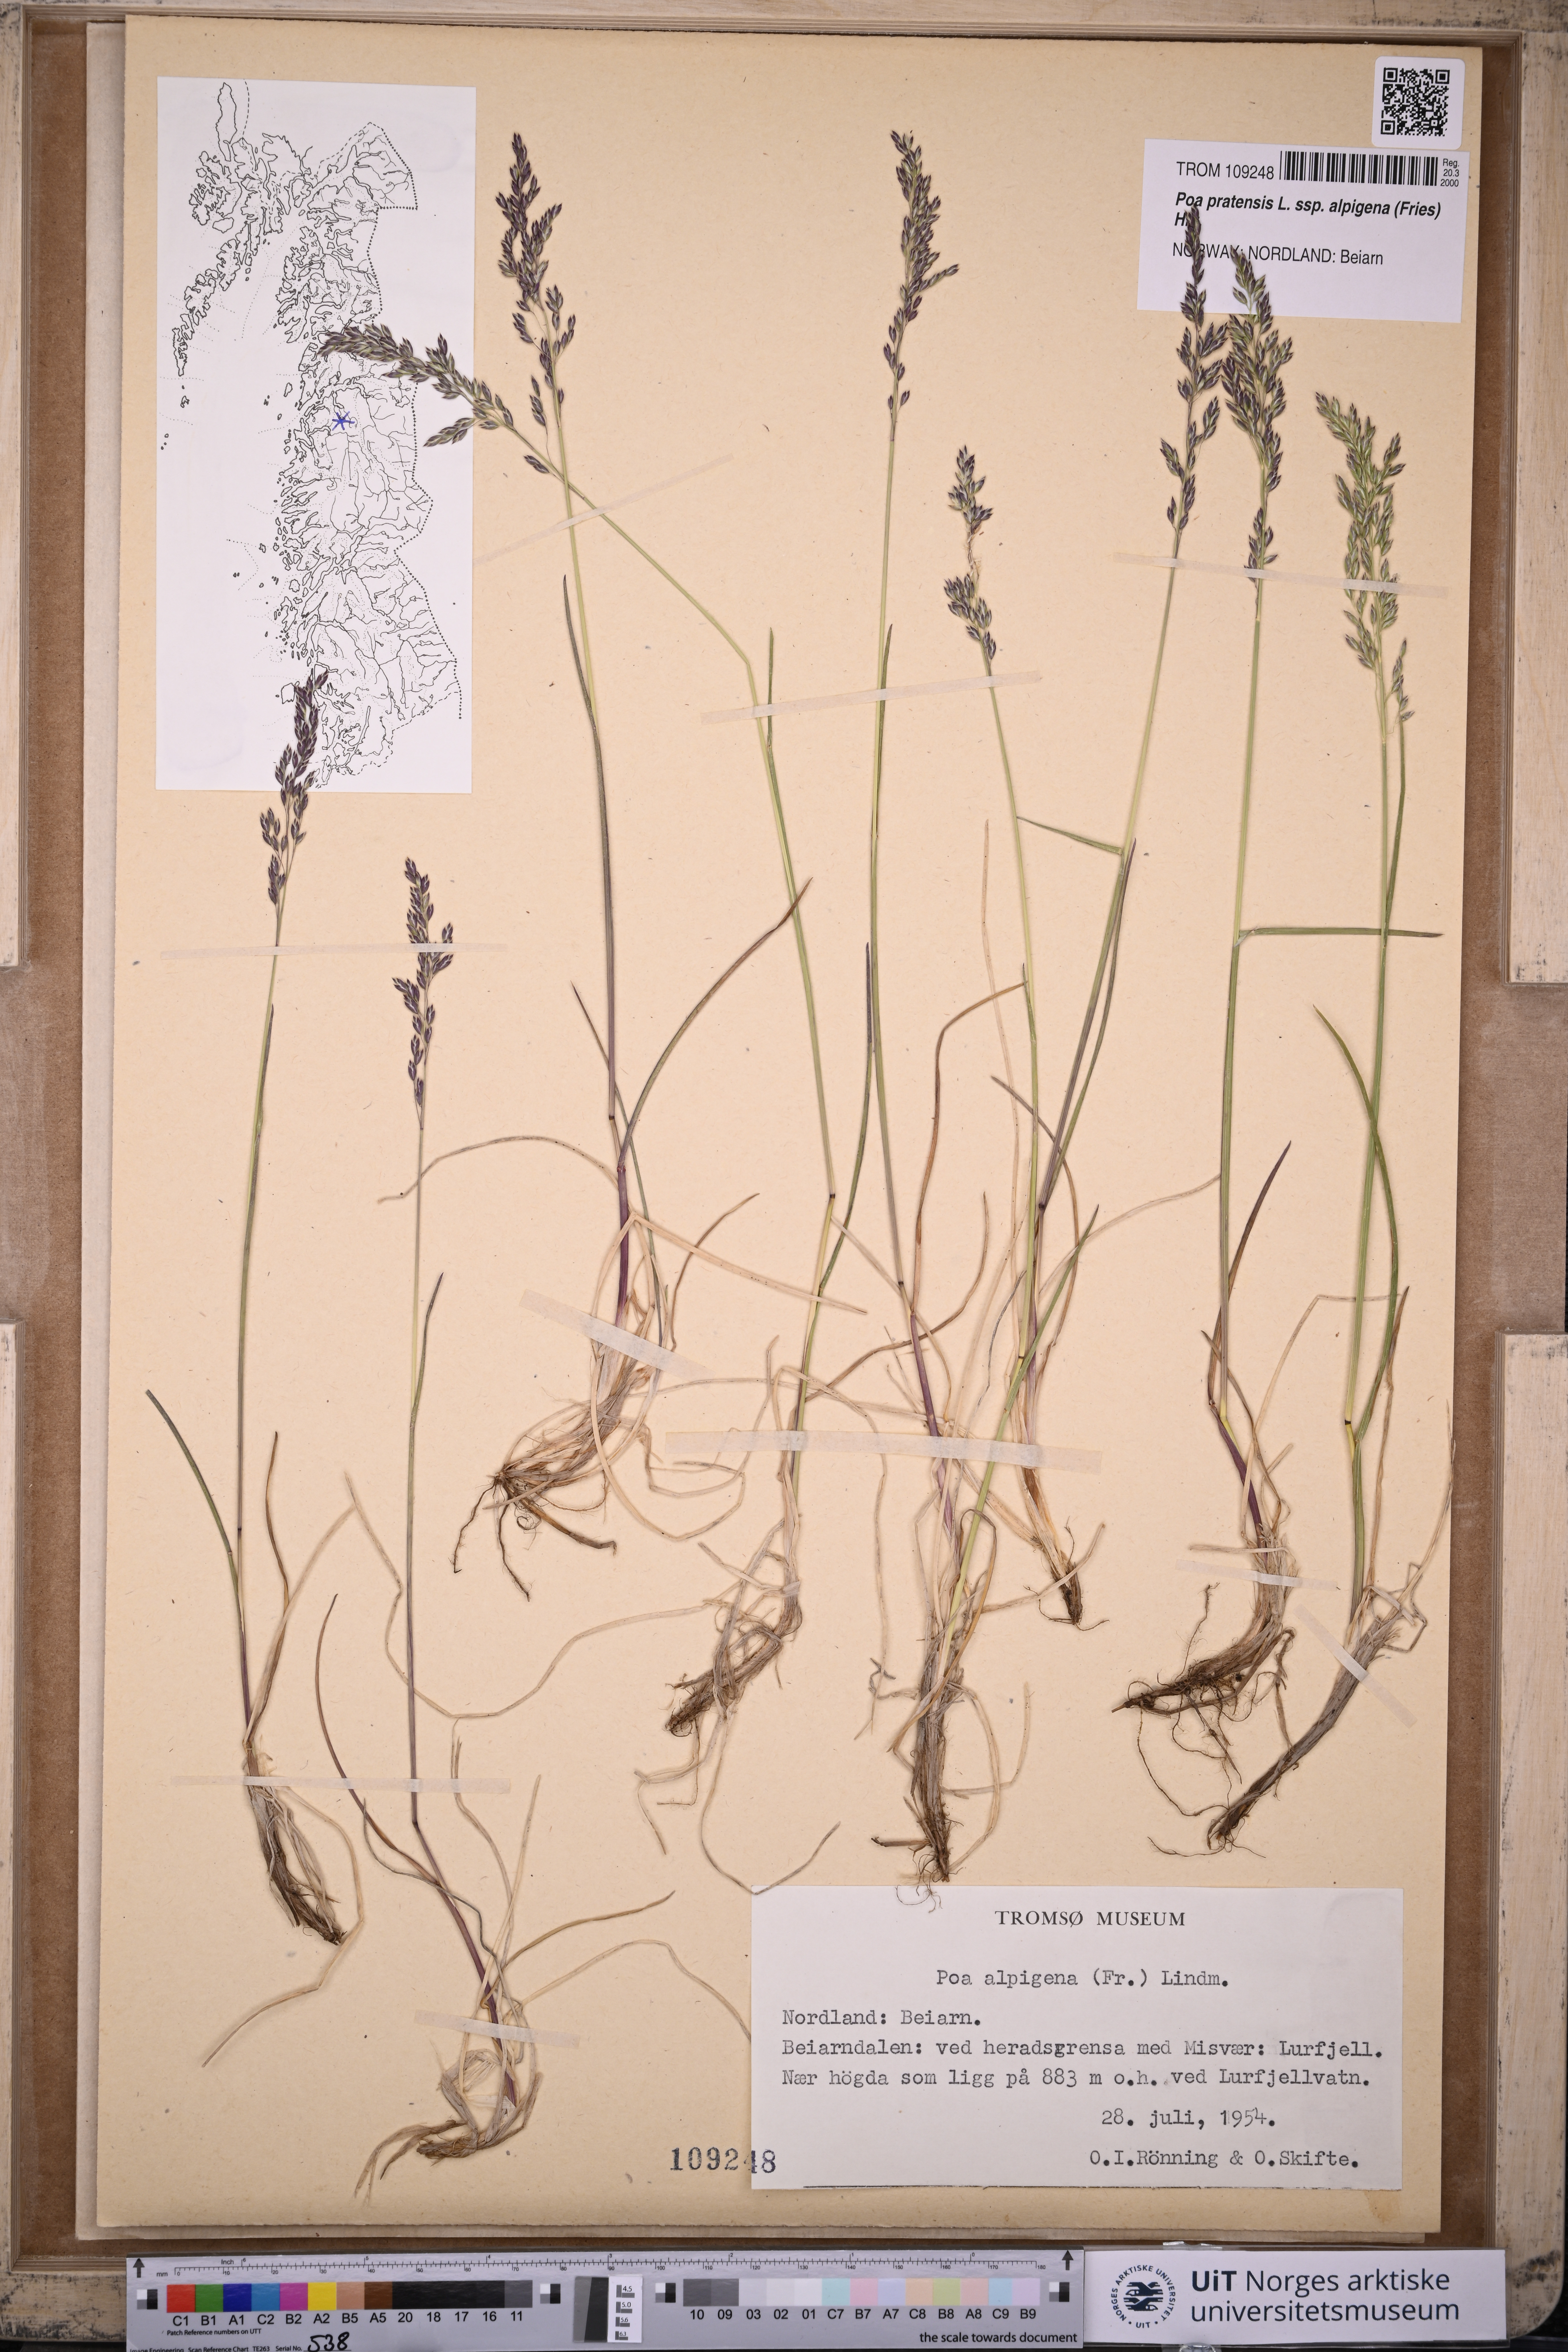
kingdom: Plantae
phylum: Tracheophyta
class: Liliopsida
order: Poales
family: Poaceae
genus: Poa
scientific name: Poa alpigena
